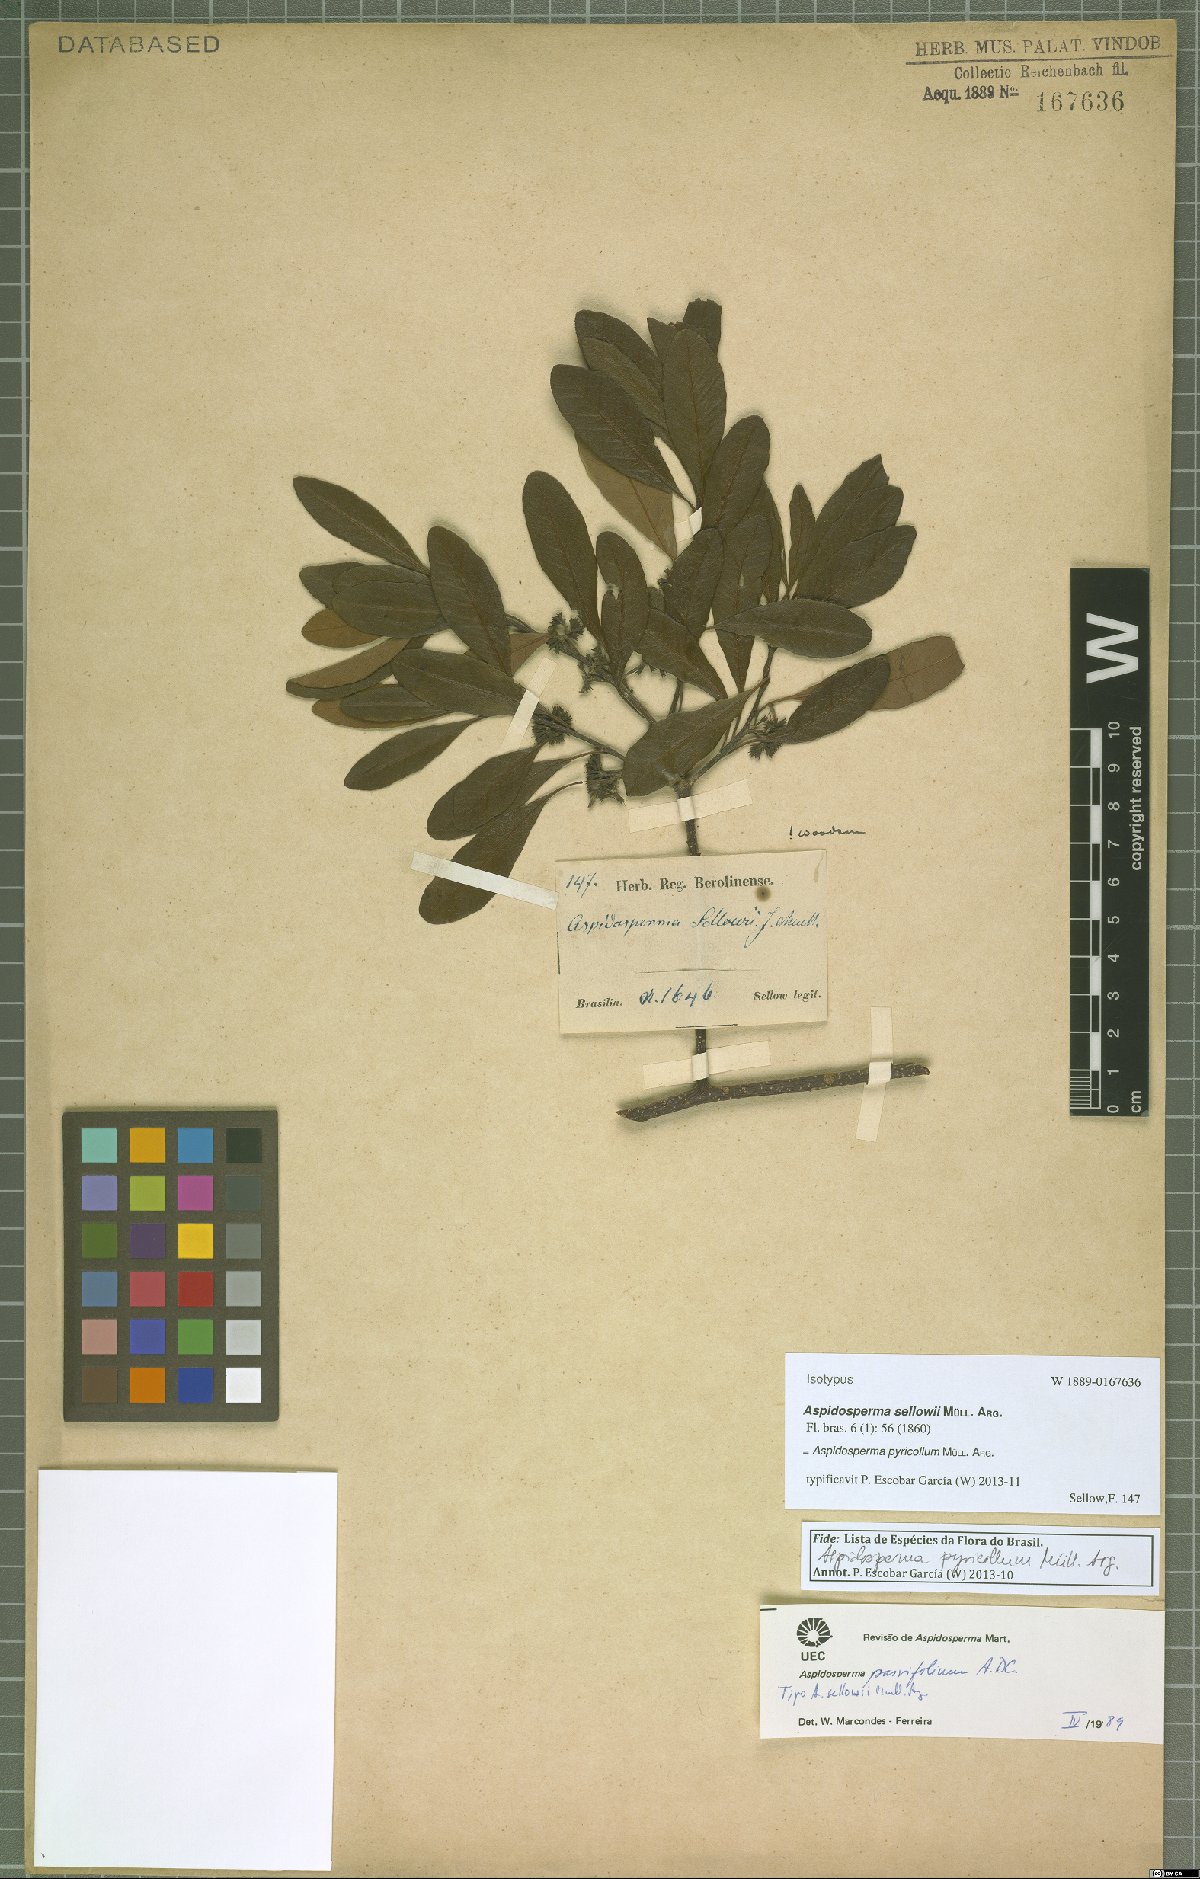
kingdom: Plantae
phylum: Tracheophyta
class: Magnoliopsida
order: Gentianales
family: Apocynaceae
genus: Aspidosperma
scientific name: Aspidosperma pyricollum
